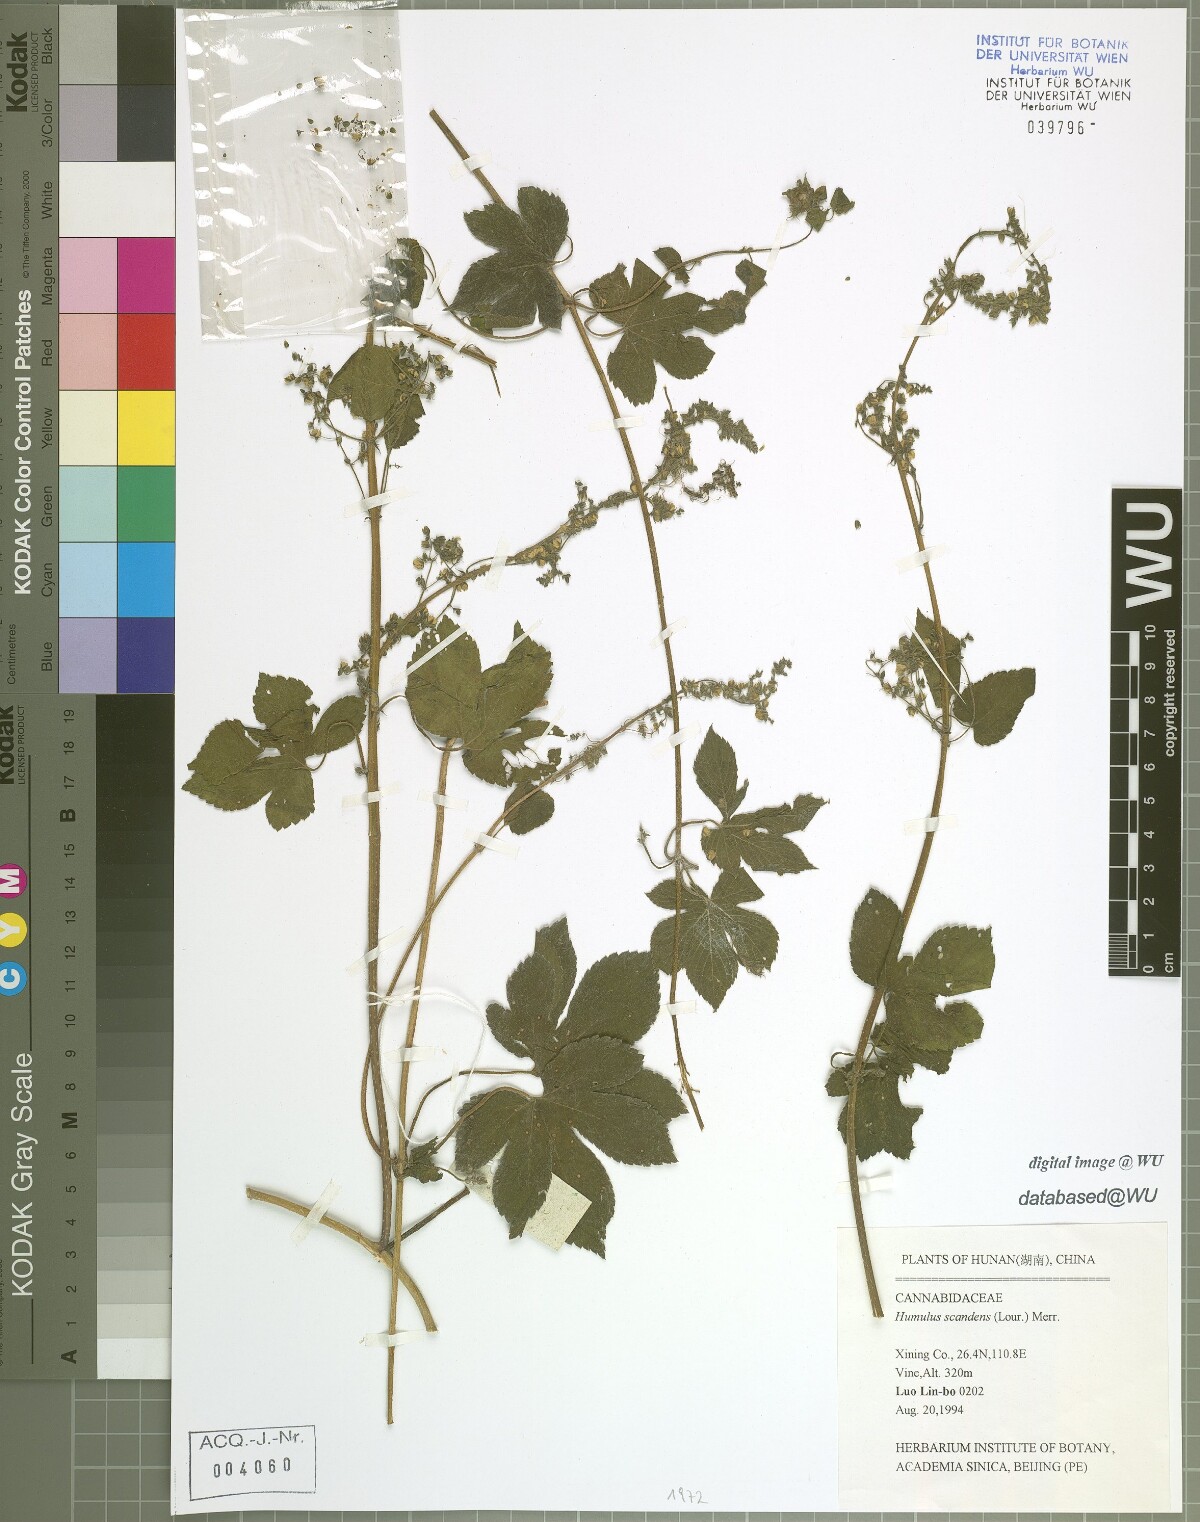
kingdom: Plantae
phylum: Tracheophyta
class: Magnoliopsida
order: Rosales
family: Cannabaceae
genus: Humulus
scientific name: Humulus scandens
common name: Japanese hop
